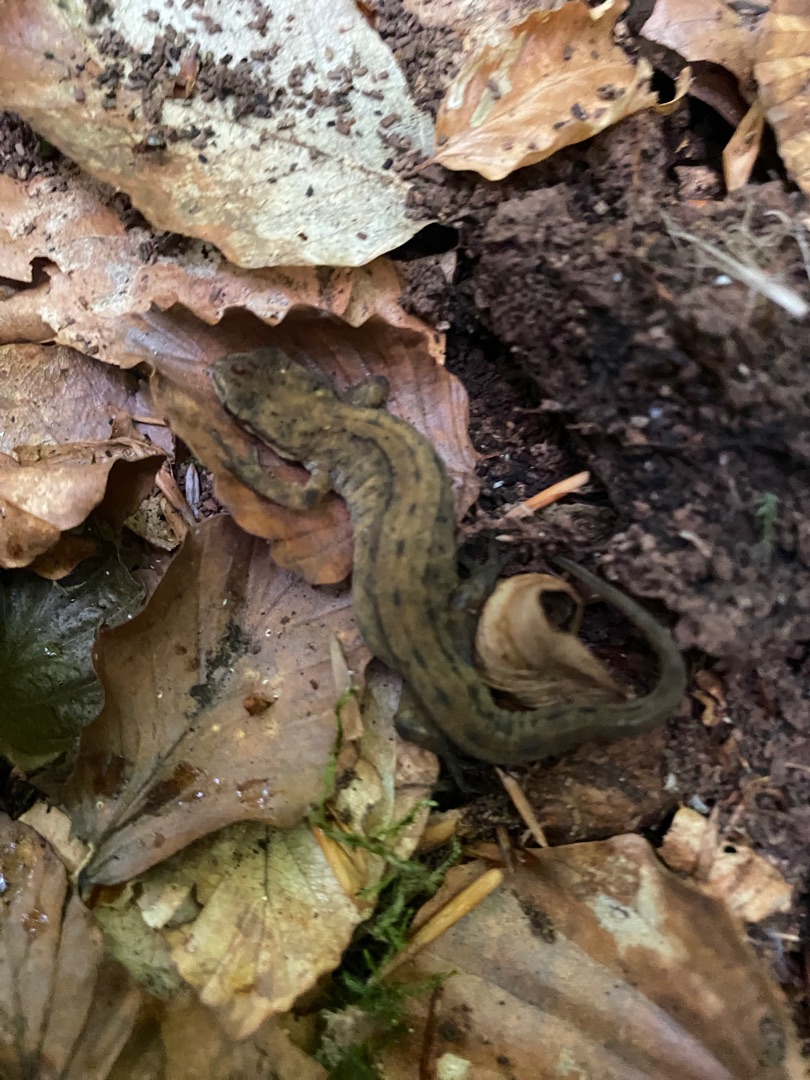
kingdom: Animalia
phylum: Chordata
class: Amphibia
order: Caudata
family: Salamandridae
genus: Lissotriton
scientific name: Lissotriton vulgaris
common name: Lille vandsalamander
